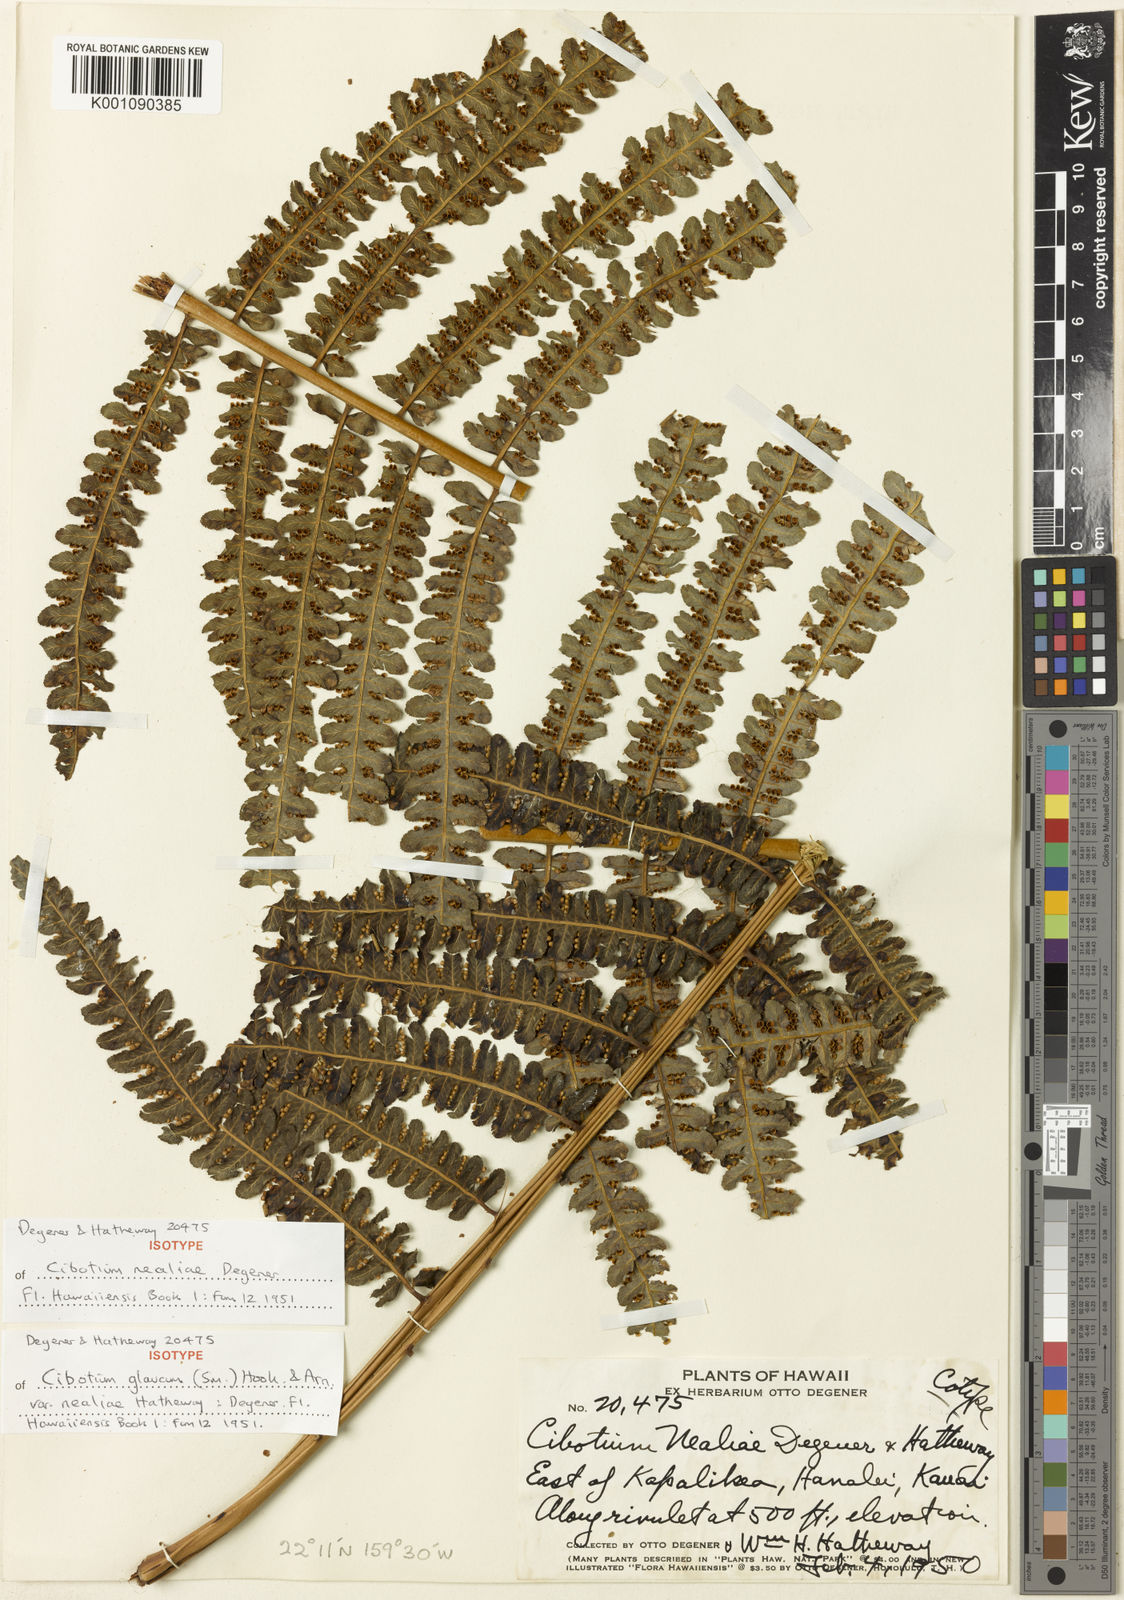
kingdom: Plantae
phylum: Tracheophyta
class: Polypodiopsida
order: Cyatheales
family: Cibotiaceae
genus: Cibotium
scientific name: Cibotium nealiae
